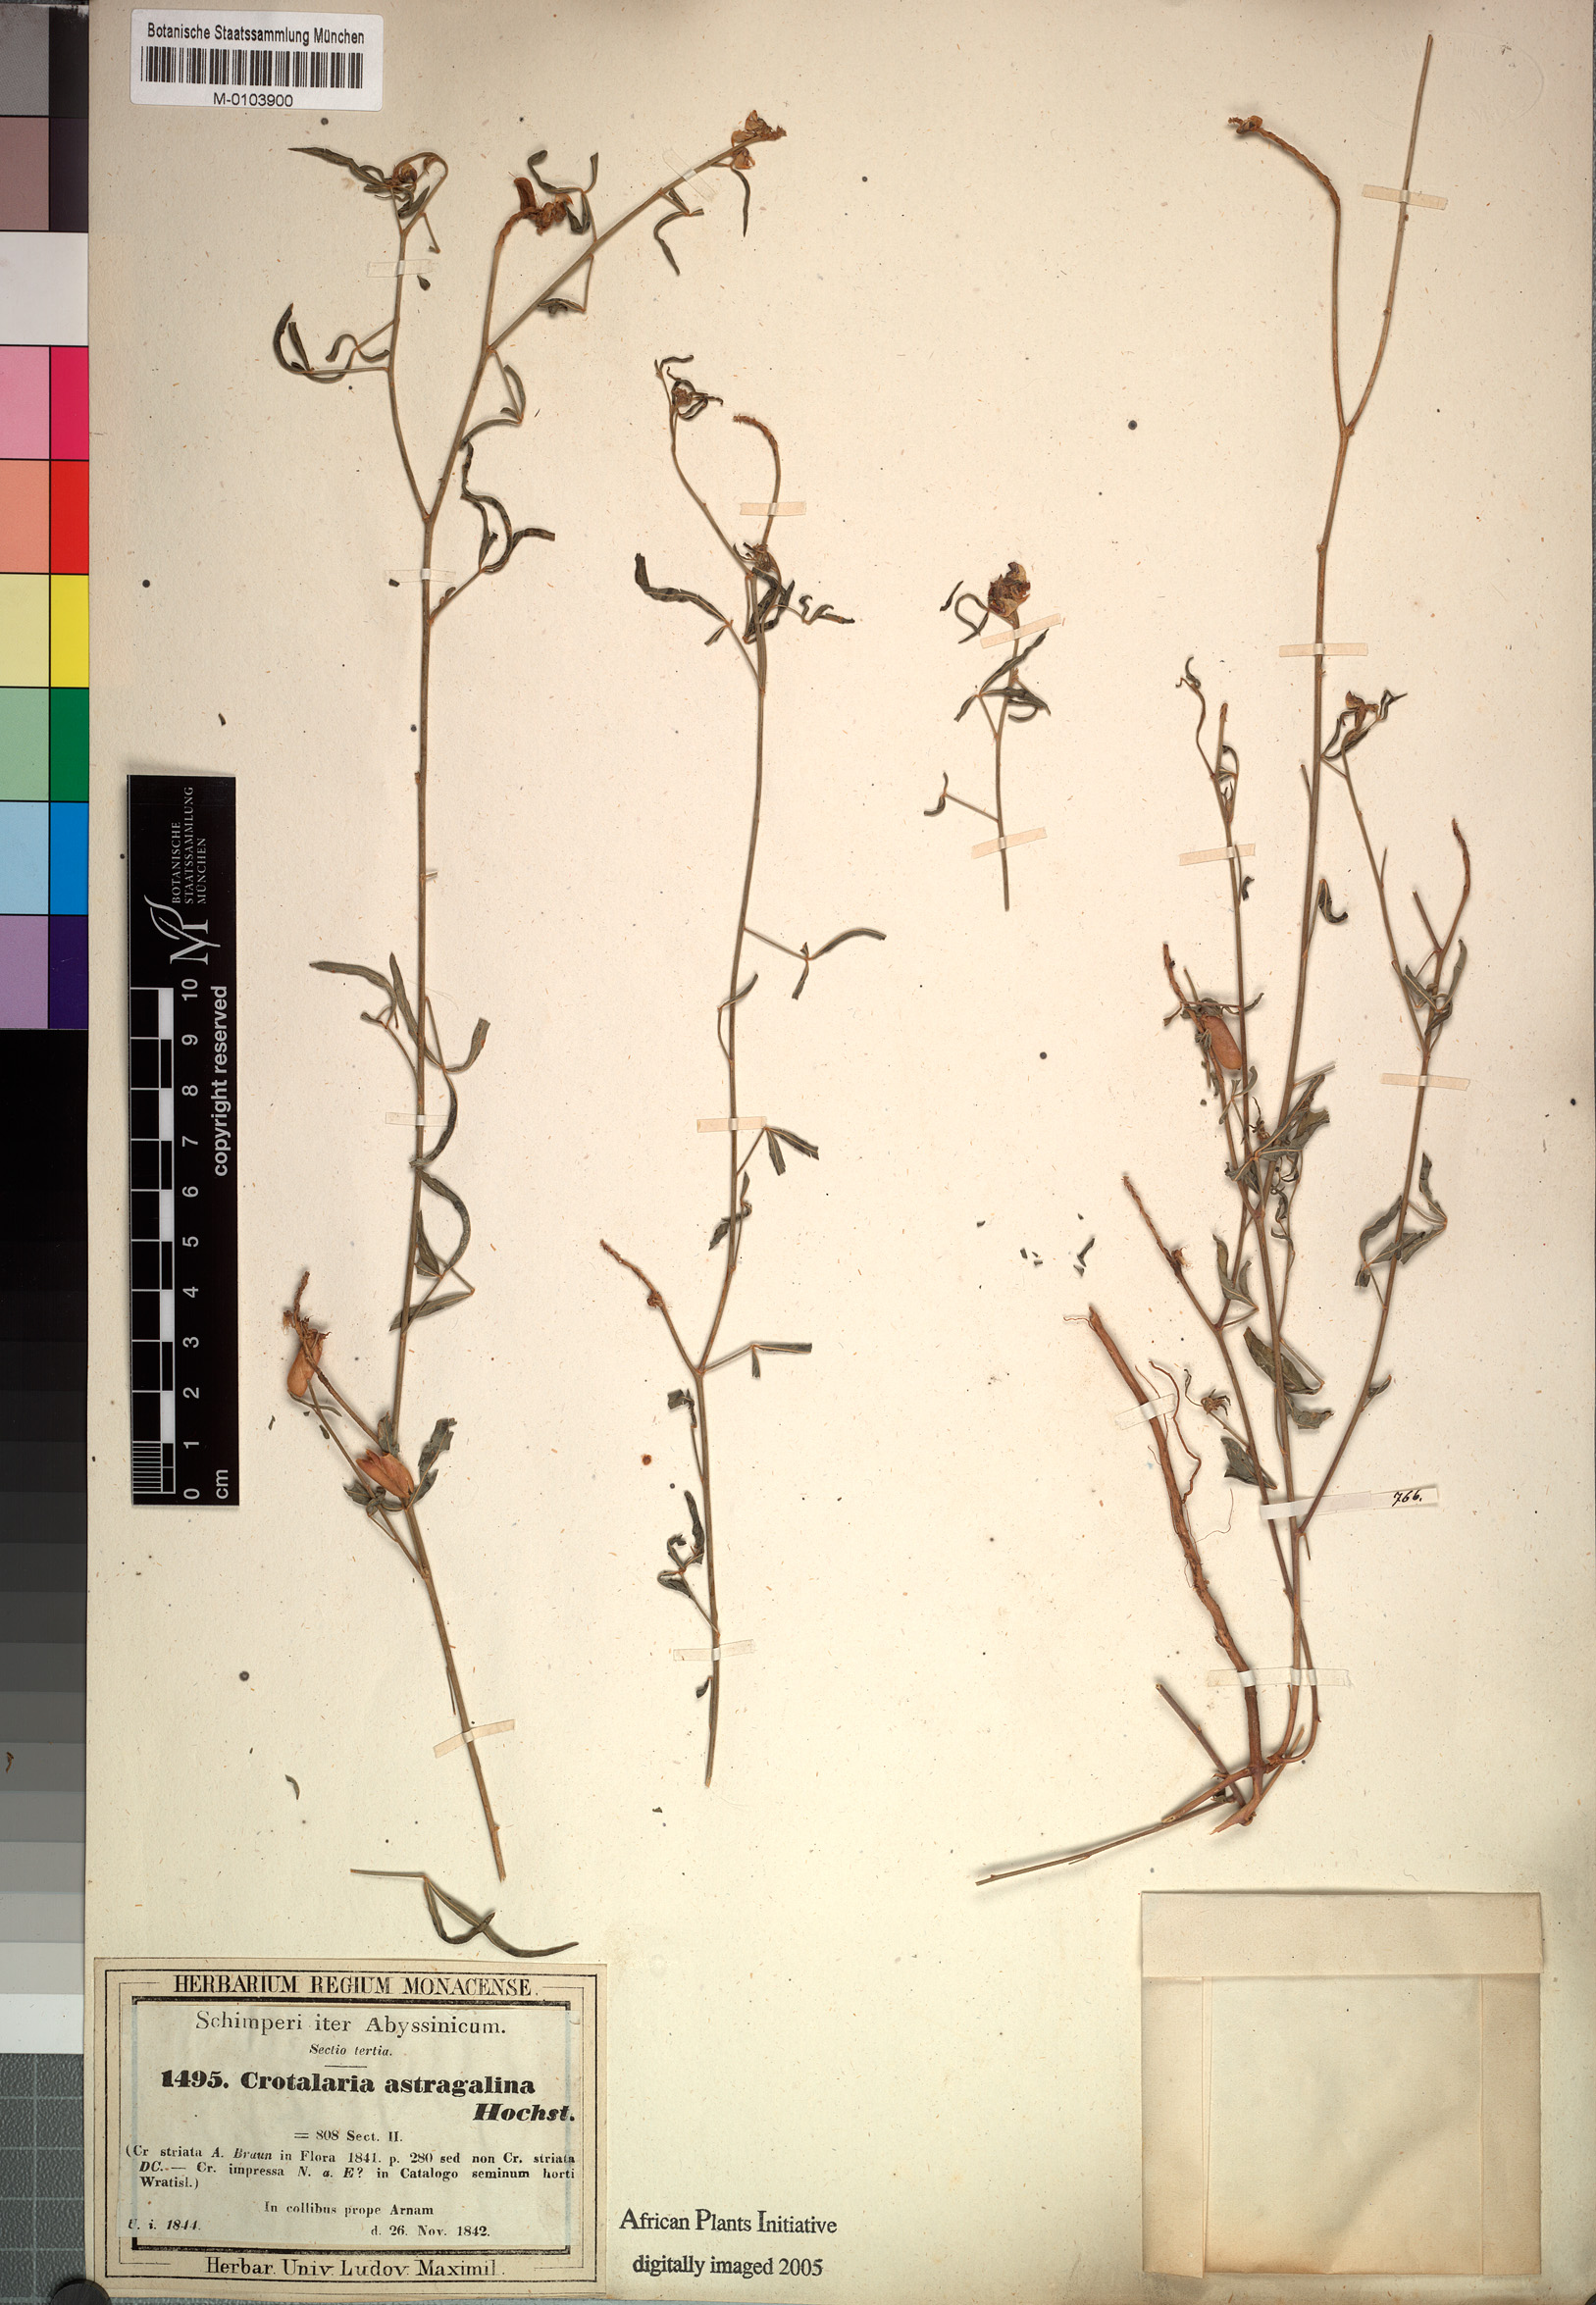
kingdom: Plantae
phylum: Tracheophyta
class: Magnoliopsida
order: Fabales
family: Fabaceae
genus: Crotalaria
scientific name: Crotalaria impressa
